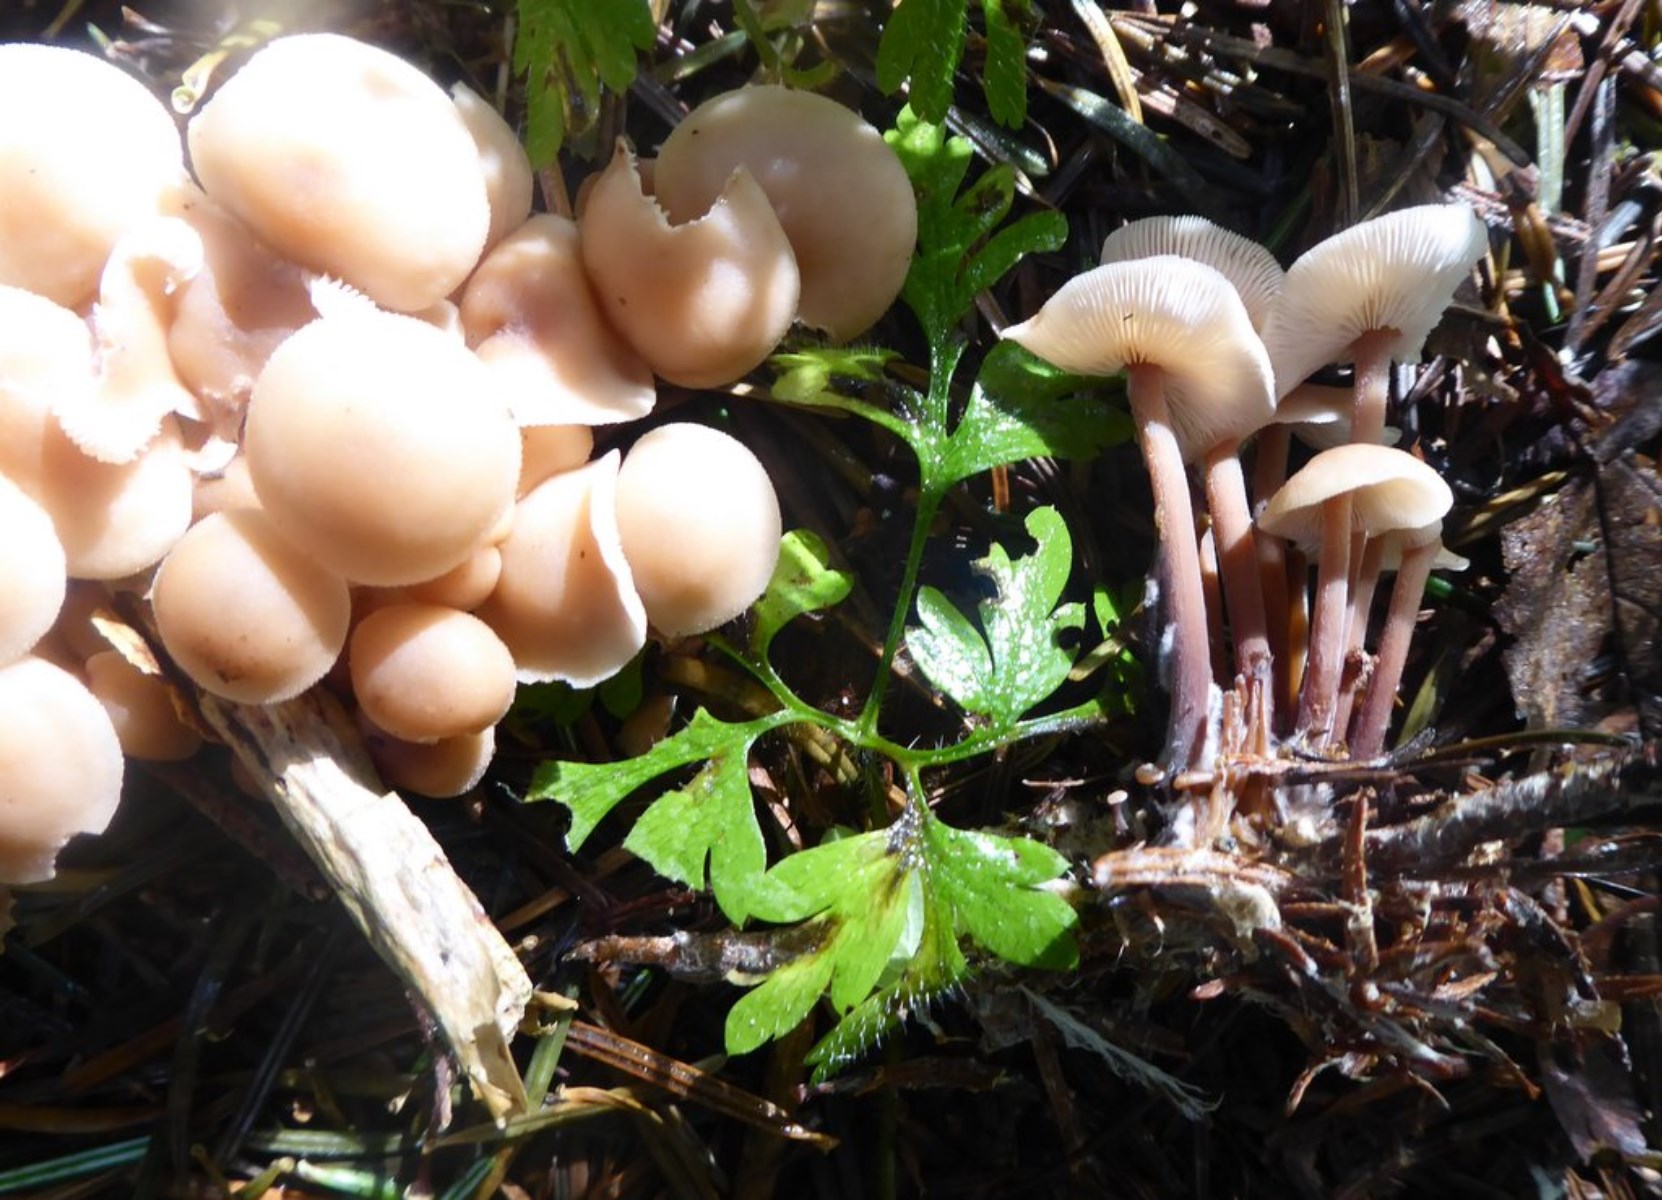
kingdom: Fungi
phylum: Basidiomycota
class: Agaricomycetes
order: Agaricales
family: Omphalotaceae
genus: Collybiopsis
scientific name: Collybiopsis confluens
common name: knippe-fladhat
